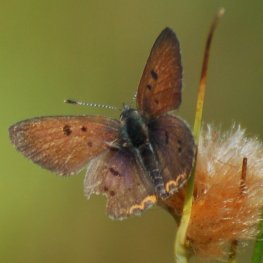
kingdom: Animalia
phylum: Arthropoda
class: Insecta
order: Lepidoptera
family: Sesiidae
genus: Sesia
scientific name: Sesia Lycaena epixanthe
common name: Bog Copper
